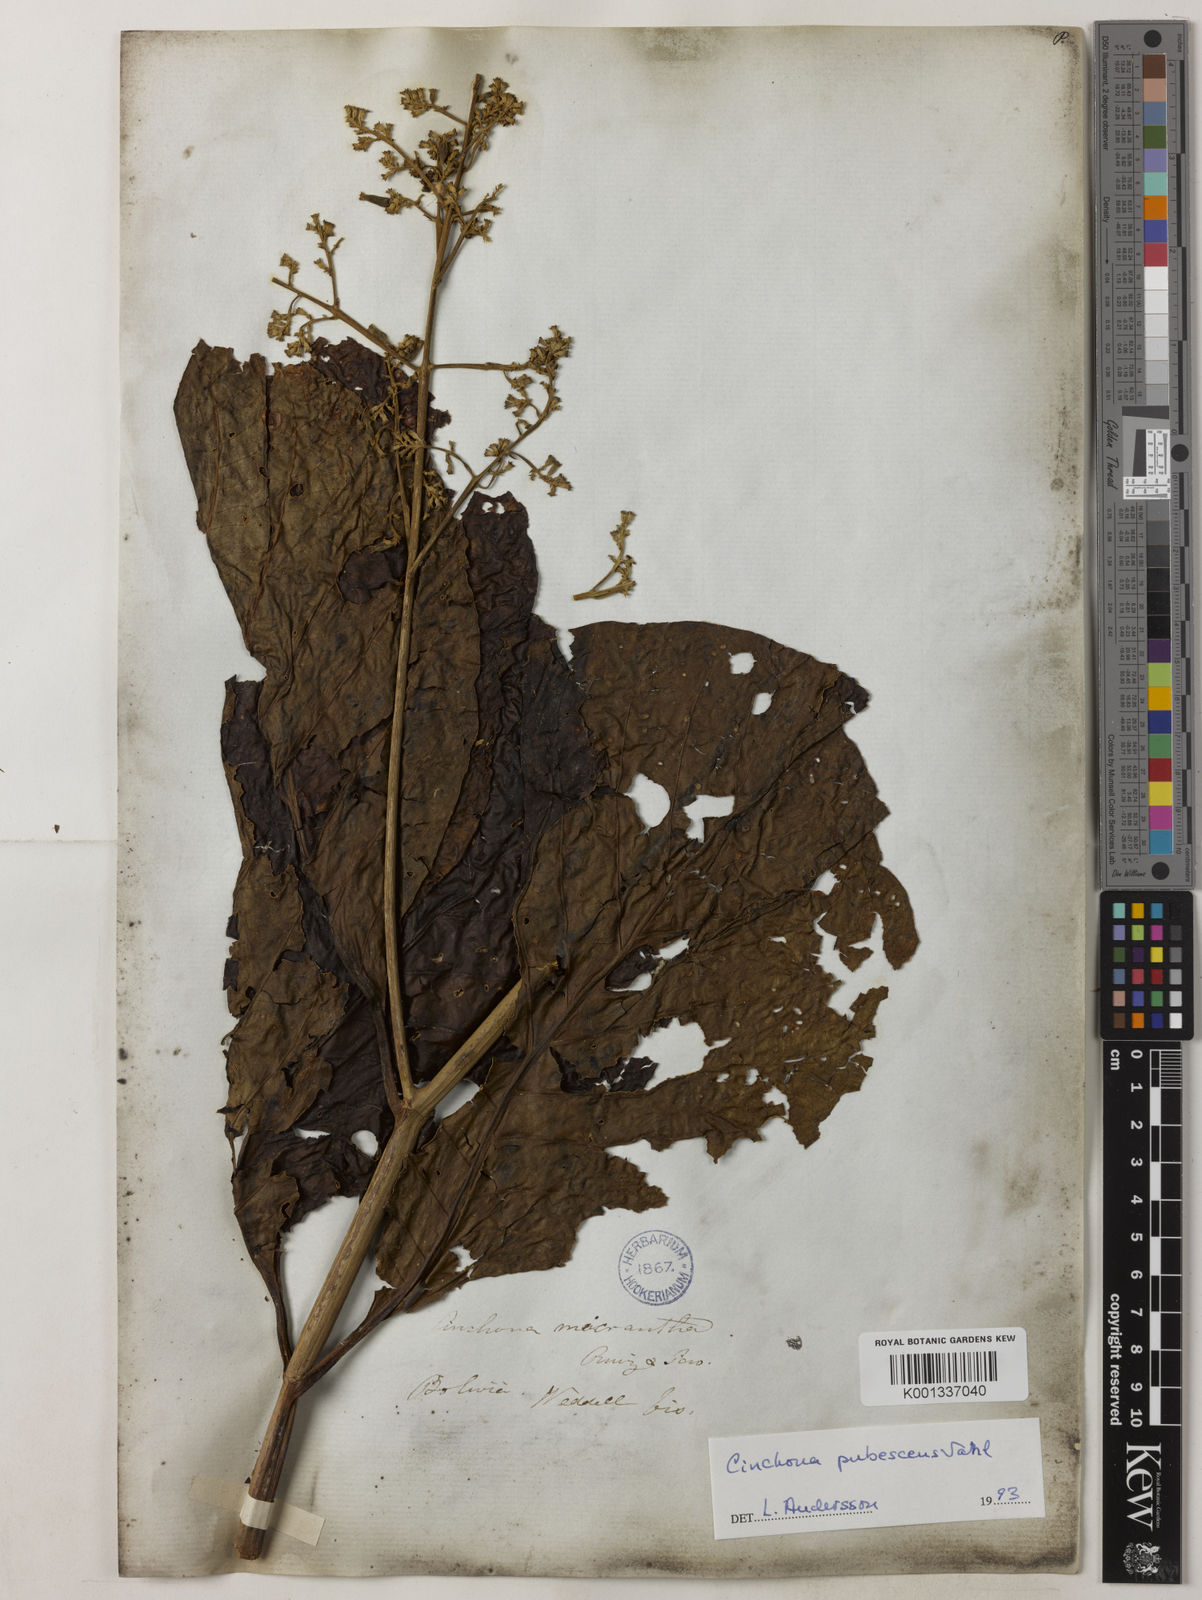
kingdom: Plantae
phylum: Tracheophyta
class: Magnoliopsida
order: Gentianales
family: Rubiaceae
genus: Cinchona
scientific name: Cinchona pubescens
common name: Quinine
